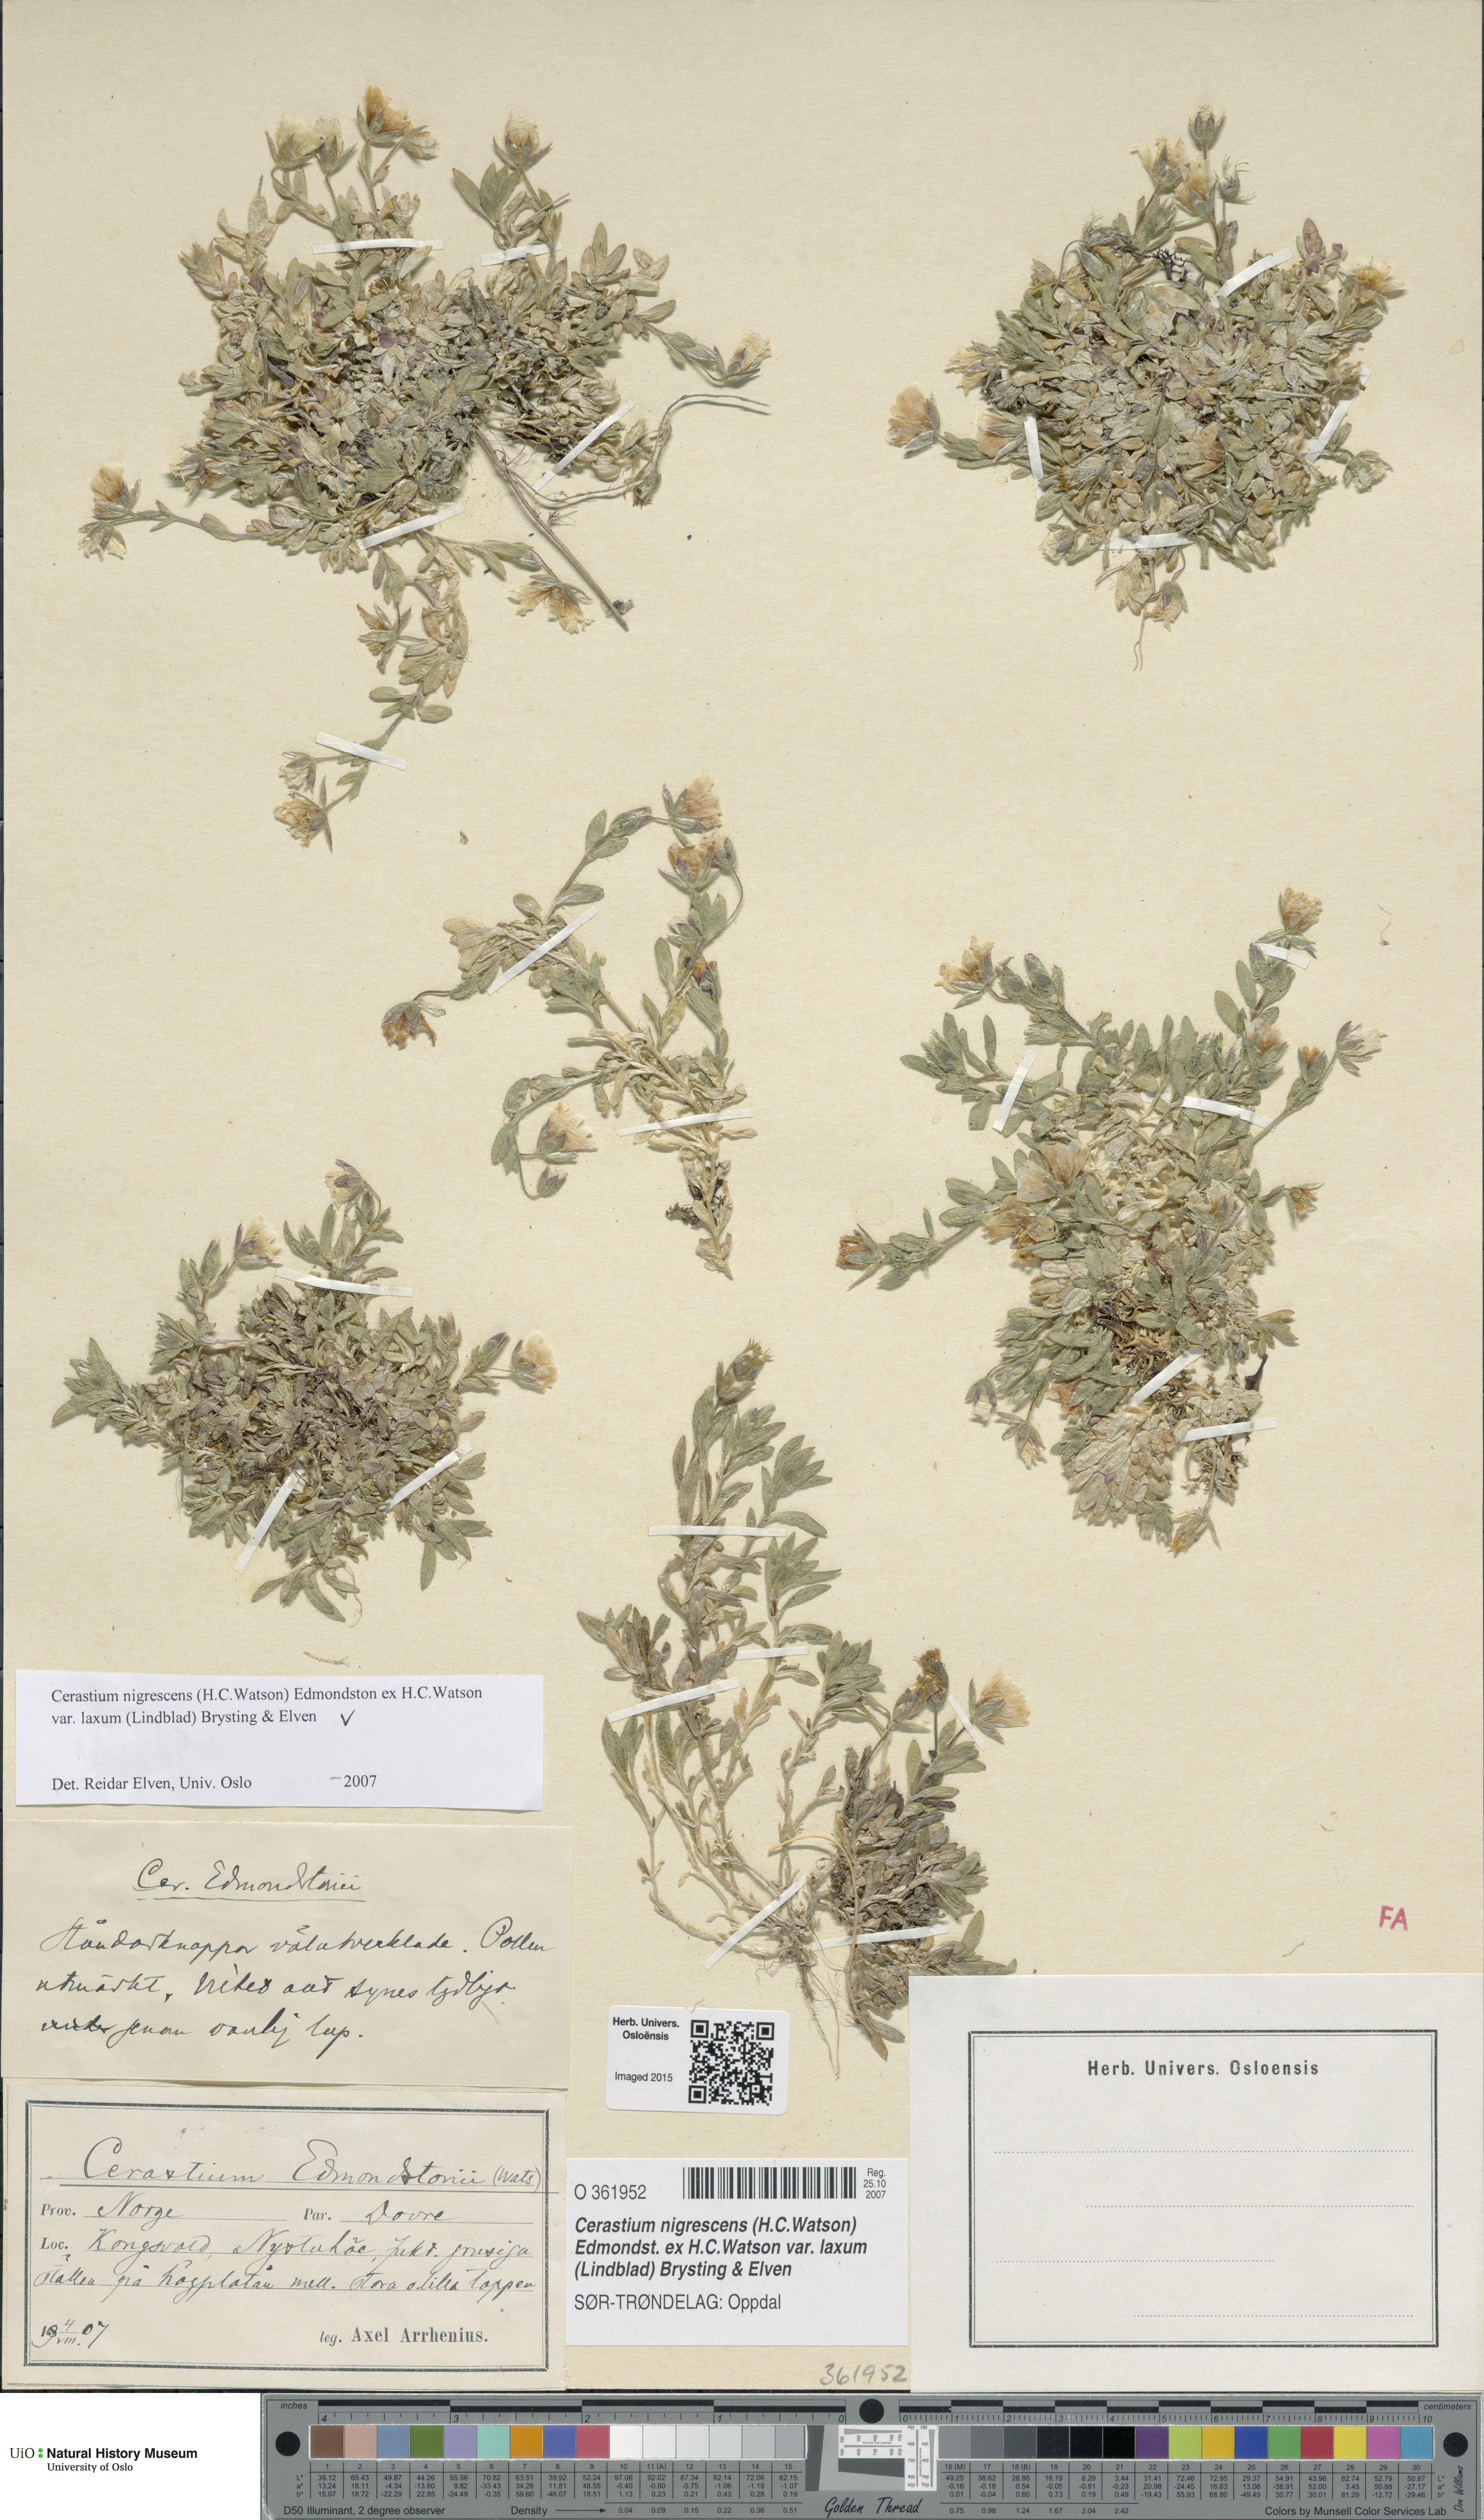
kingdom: Plantae
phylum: Tracheophyta
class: Magnoliopsida
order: Caryophyllales
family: Caryophyllaceae
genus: Cerastium
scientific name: Cerastium nigrescens
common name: Shetland mouse-ear
